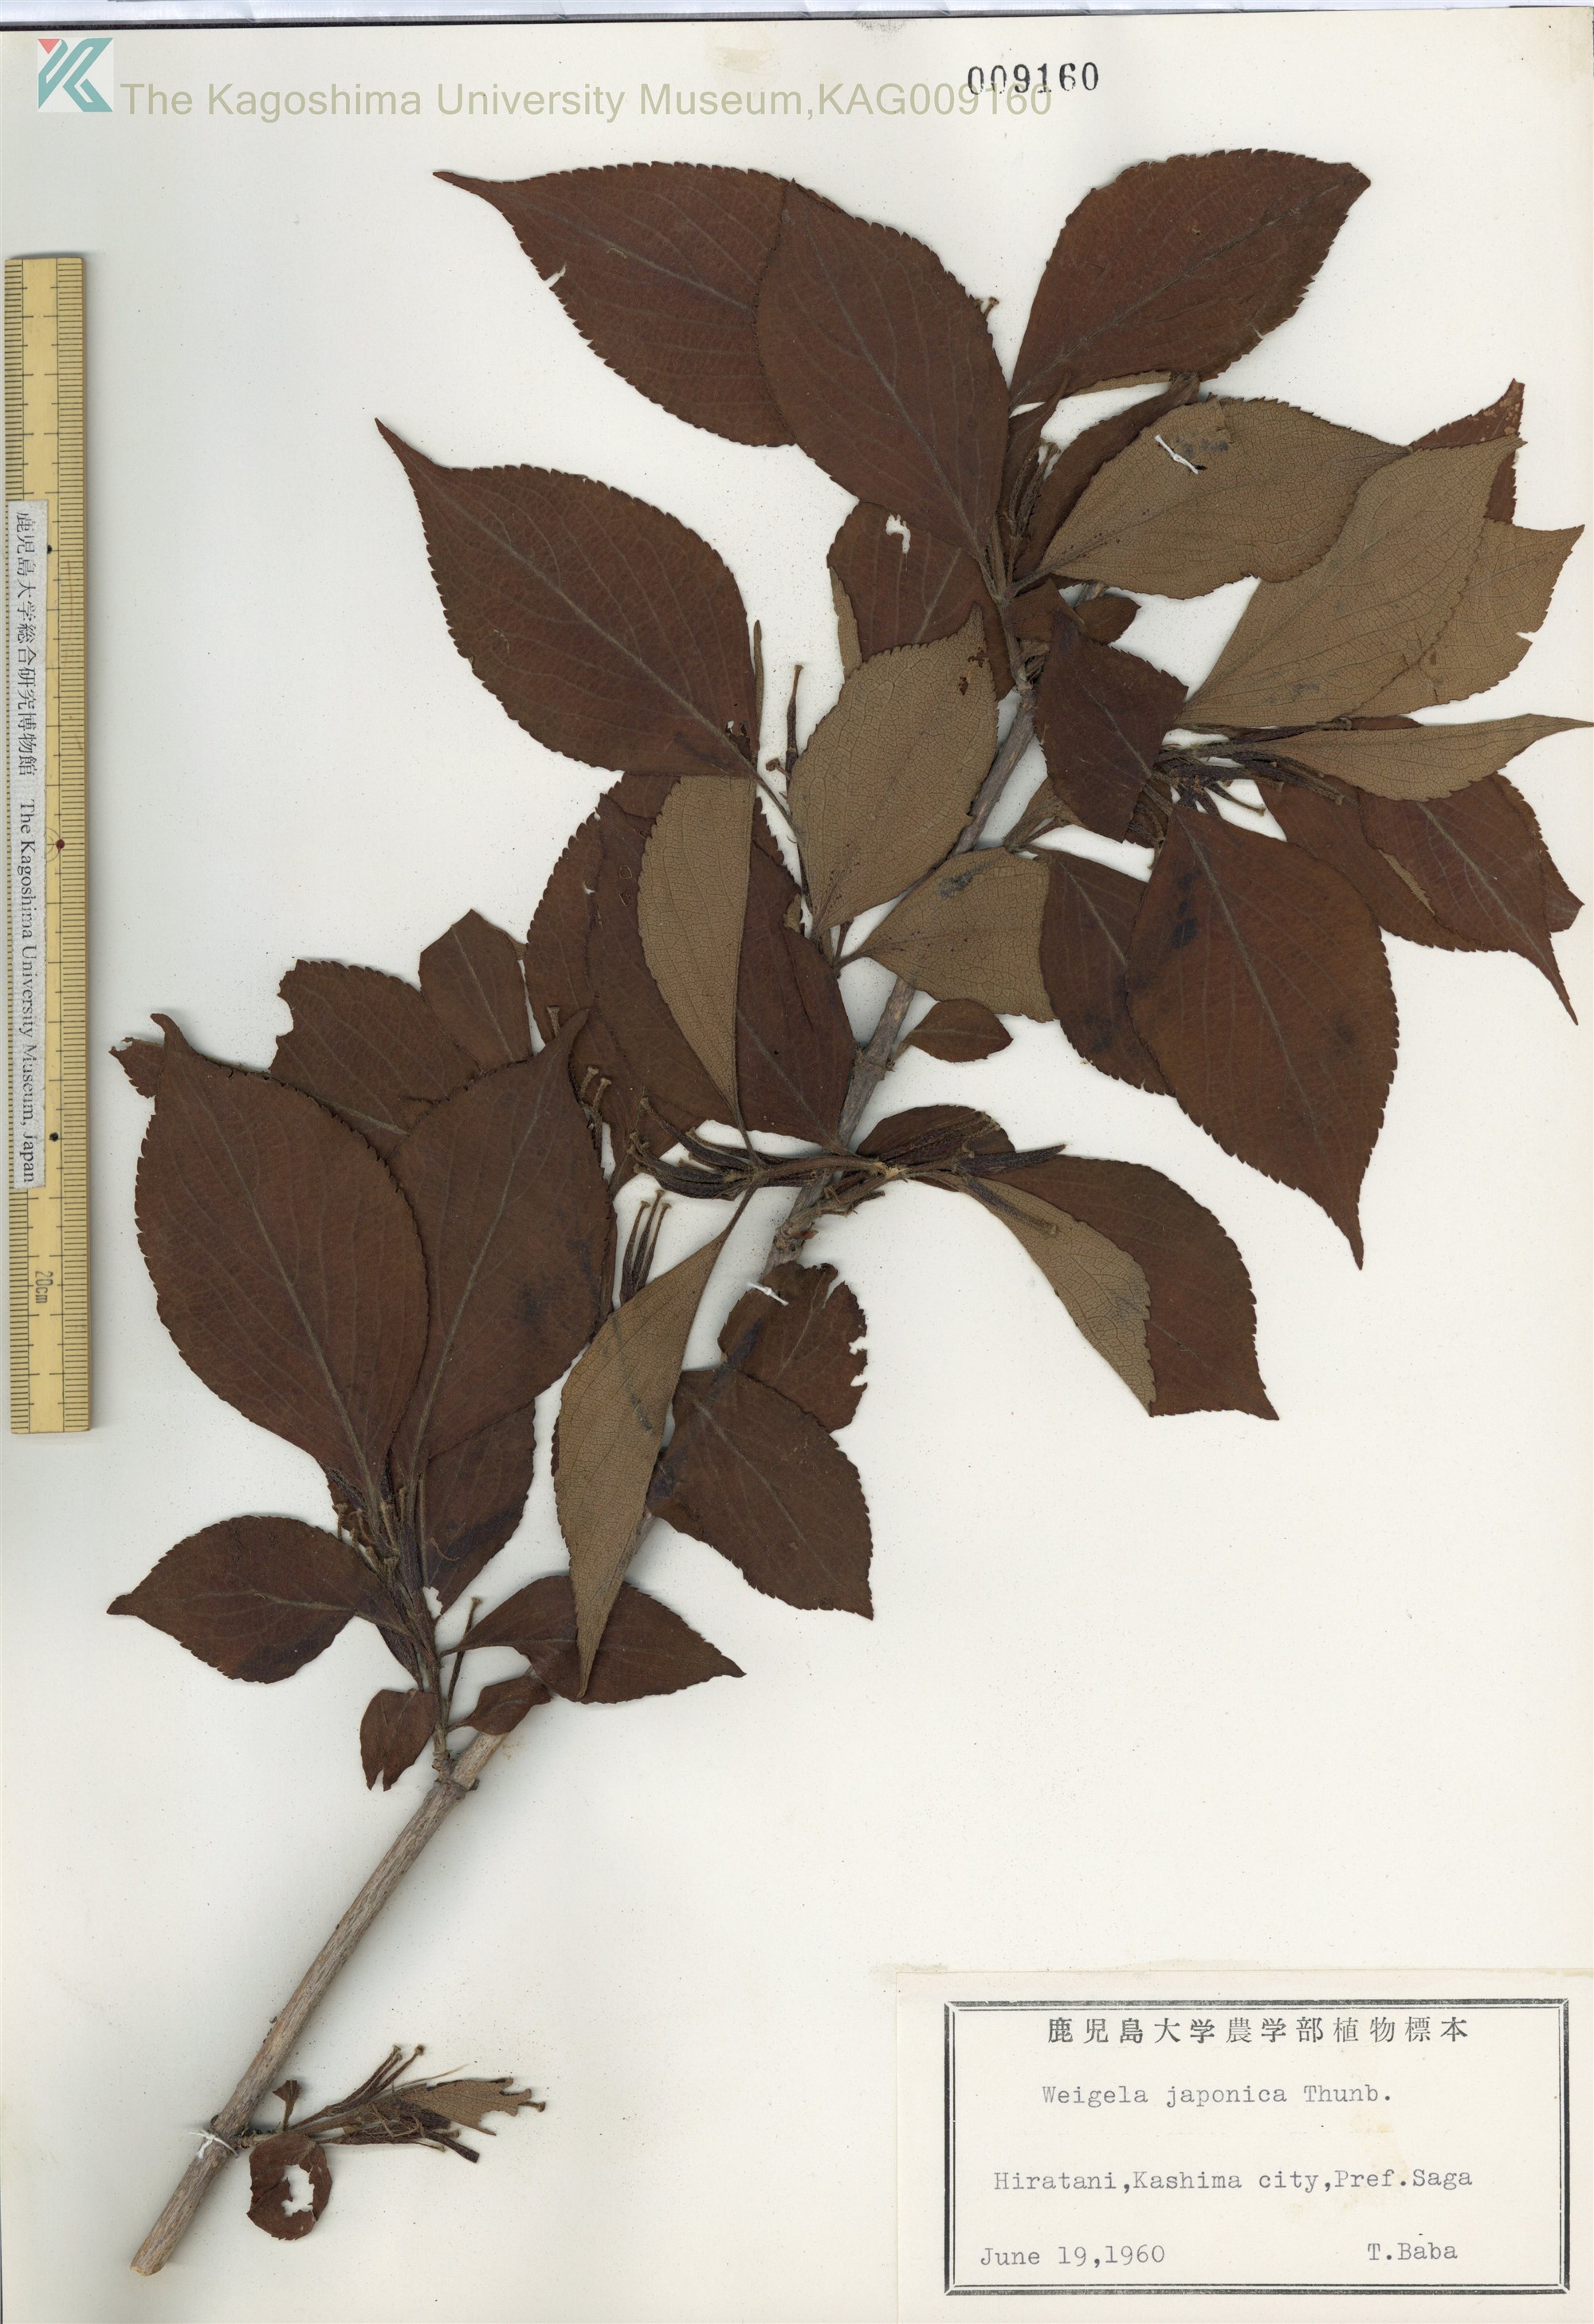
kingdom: Plantae
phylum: Tracheophyta
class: Magnoliopsida
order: Dipsacales
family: Caprifoliaceae
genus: Weigela
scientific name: Weigela japonica
